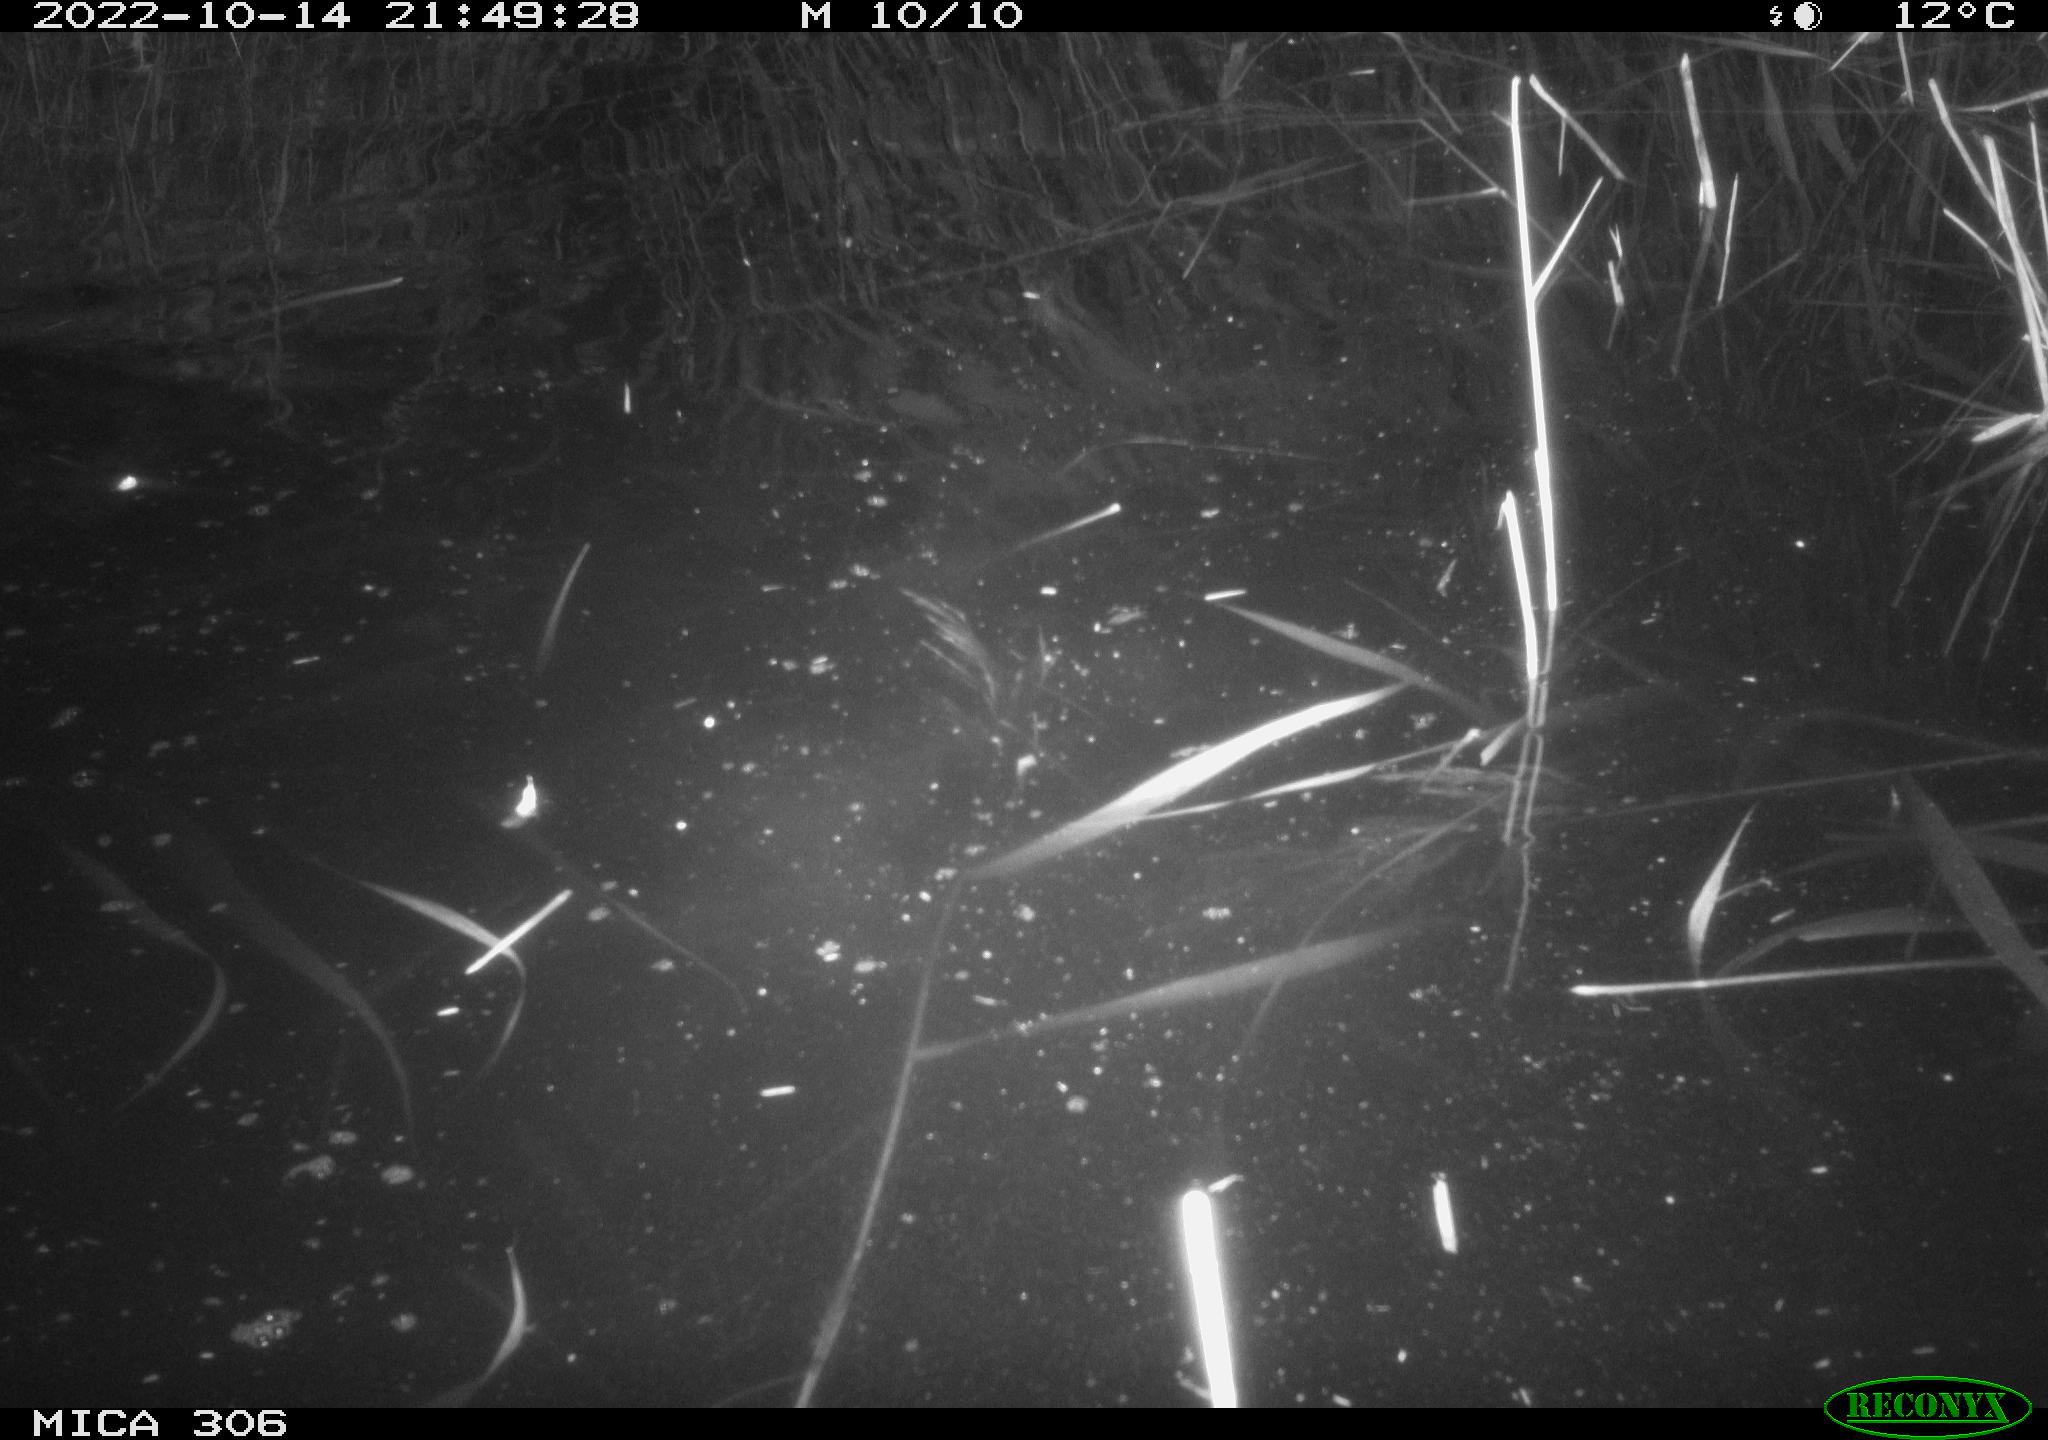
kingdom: Animalia
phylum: Chordata
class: Mammalia
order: Rodentia
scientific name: Rodentia
